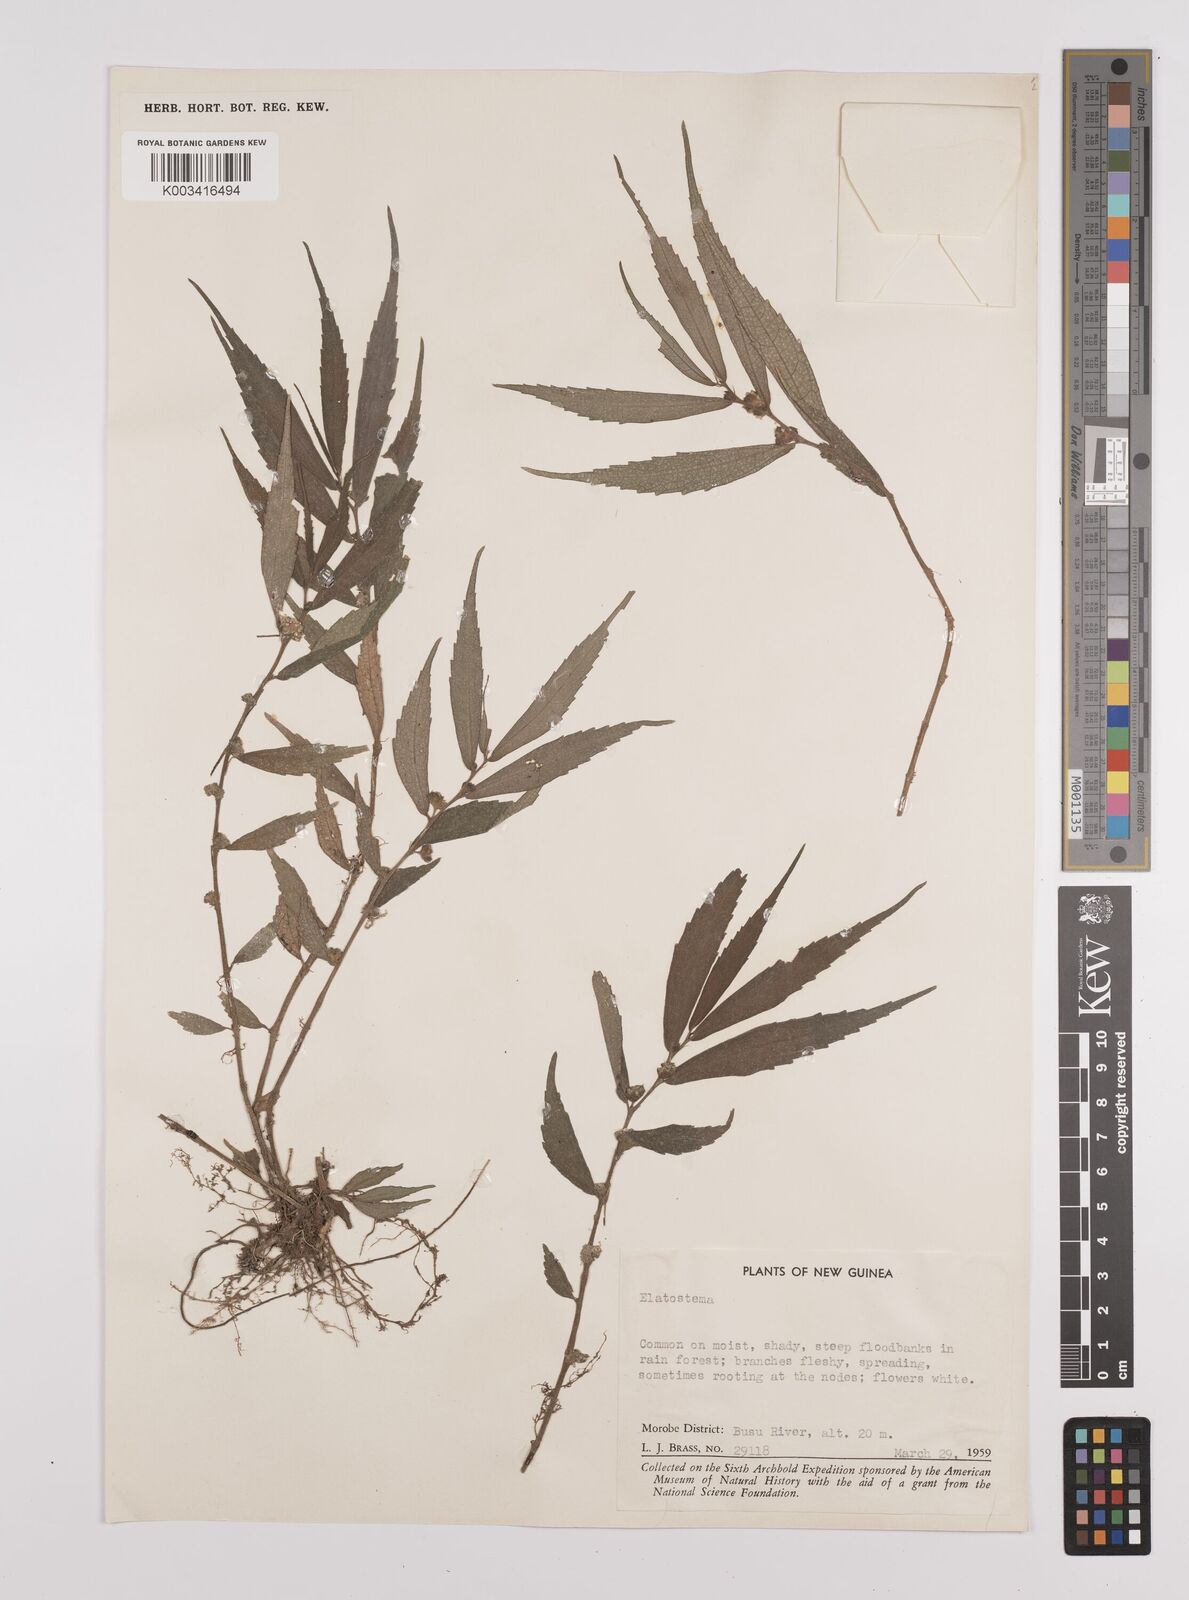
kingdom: Plantae
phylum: Tracheophyta
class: Magnoliopsida
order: Rosales
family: Urticaceae
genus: Elatostema
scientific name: Elatostema
